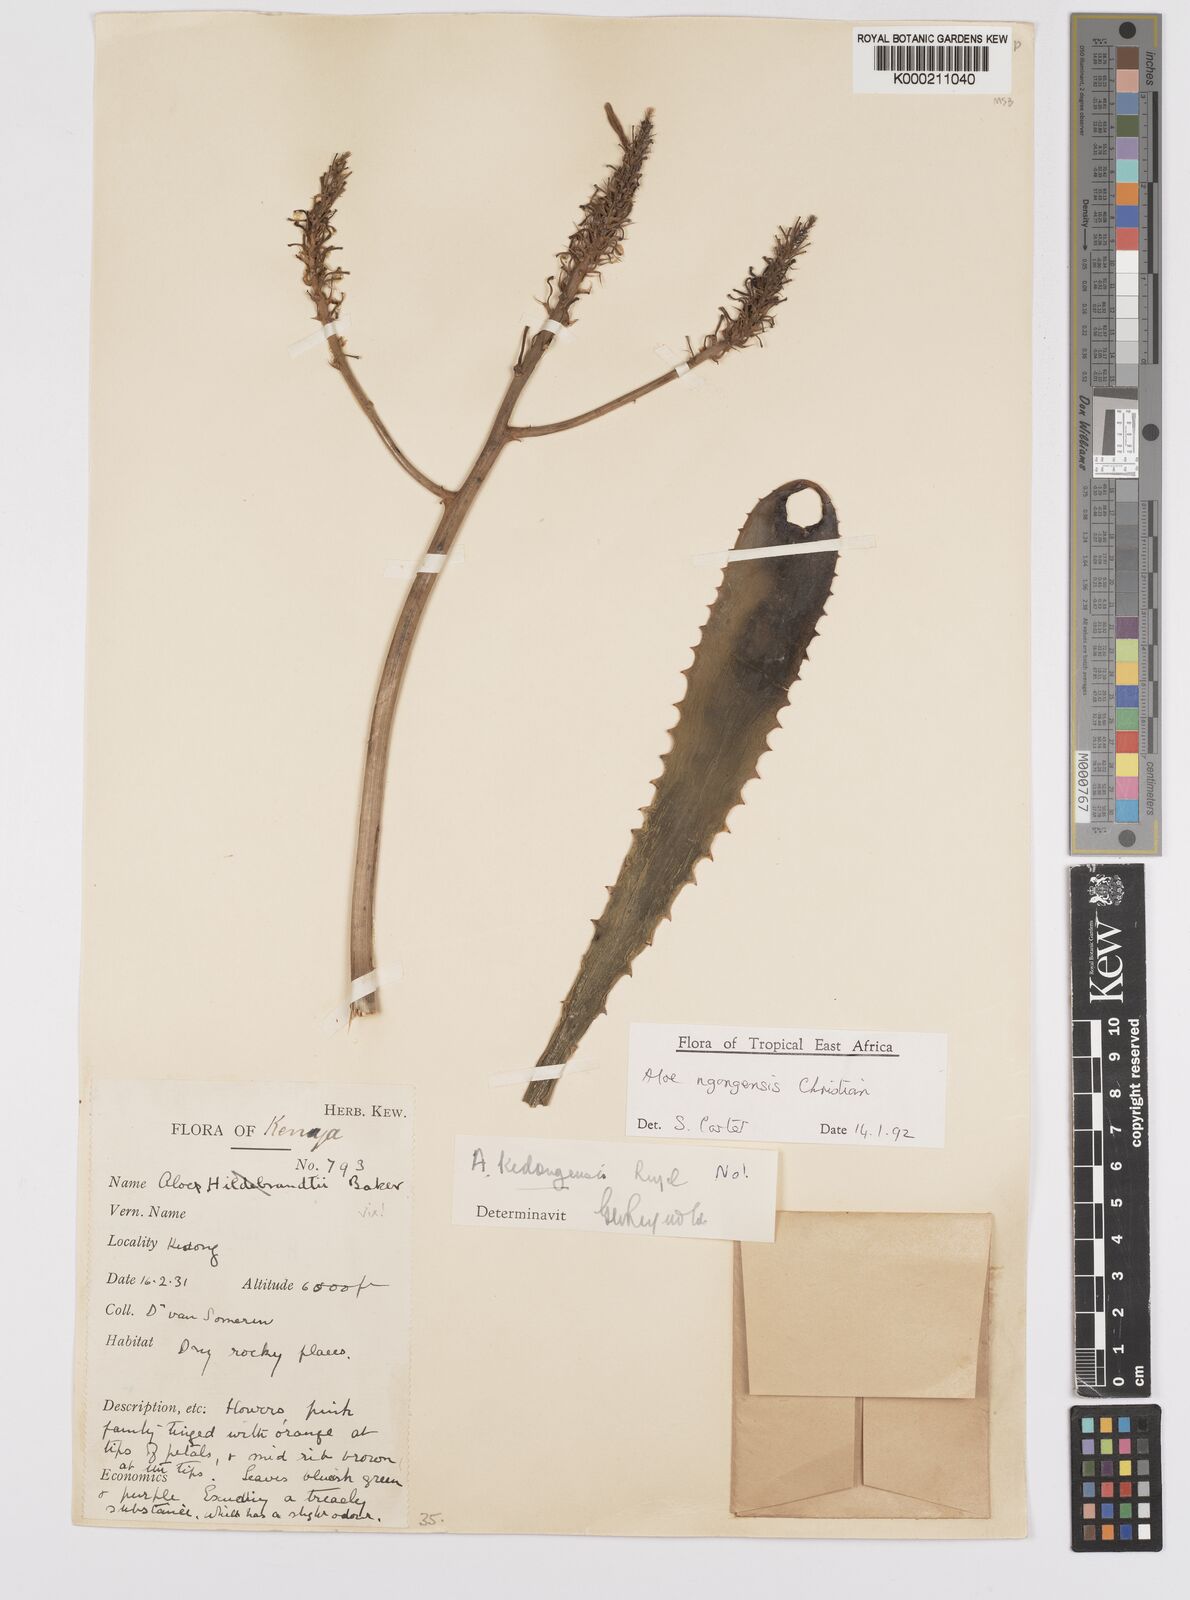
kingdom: Plantae
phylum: Tracheophyta
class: Liliopsida
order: Asparagales
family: Asphodelaceae
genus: Aloe
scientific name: Aloe ngongensis
